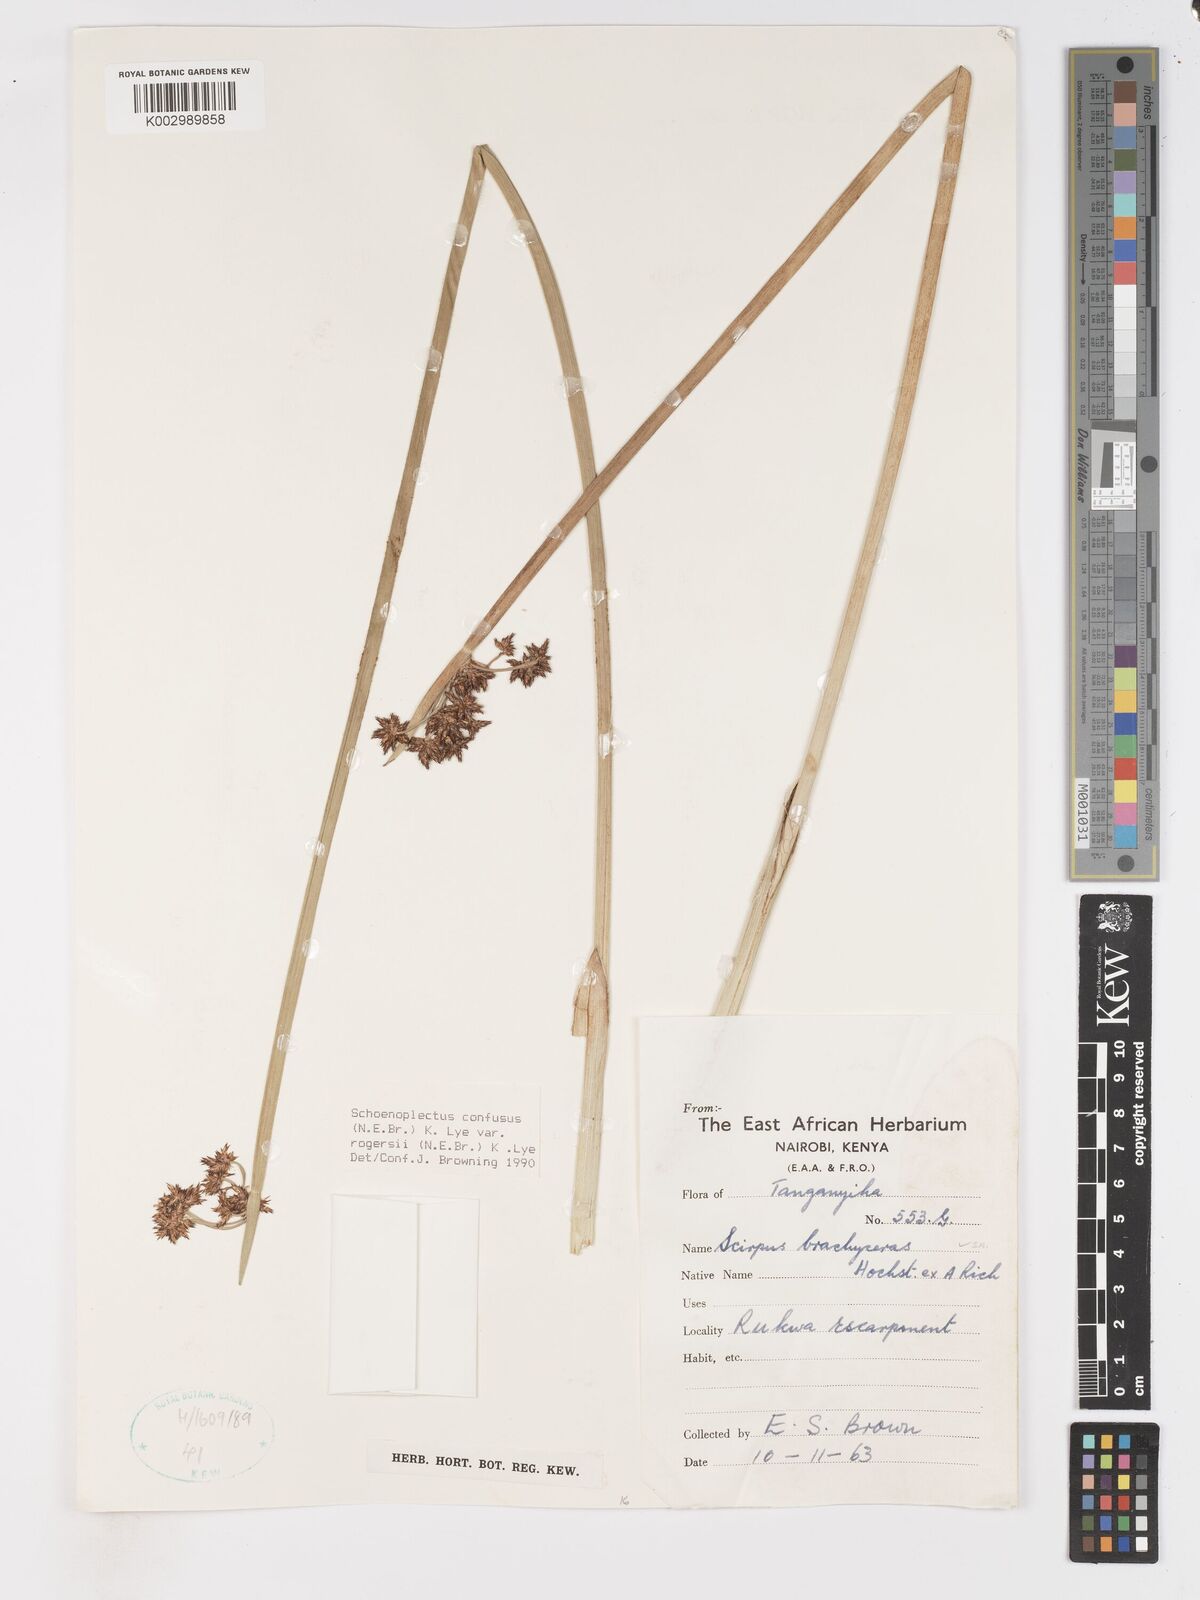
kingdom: Plantae
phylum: Tracheophyta
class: Liliopsida
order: Poales
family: Cyperaceae
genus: Schoenoplectiella
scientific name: Schoenoplectiella rogersii
